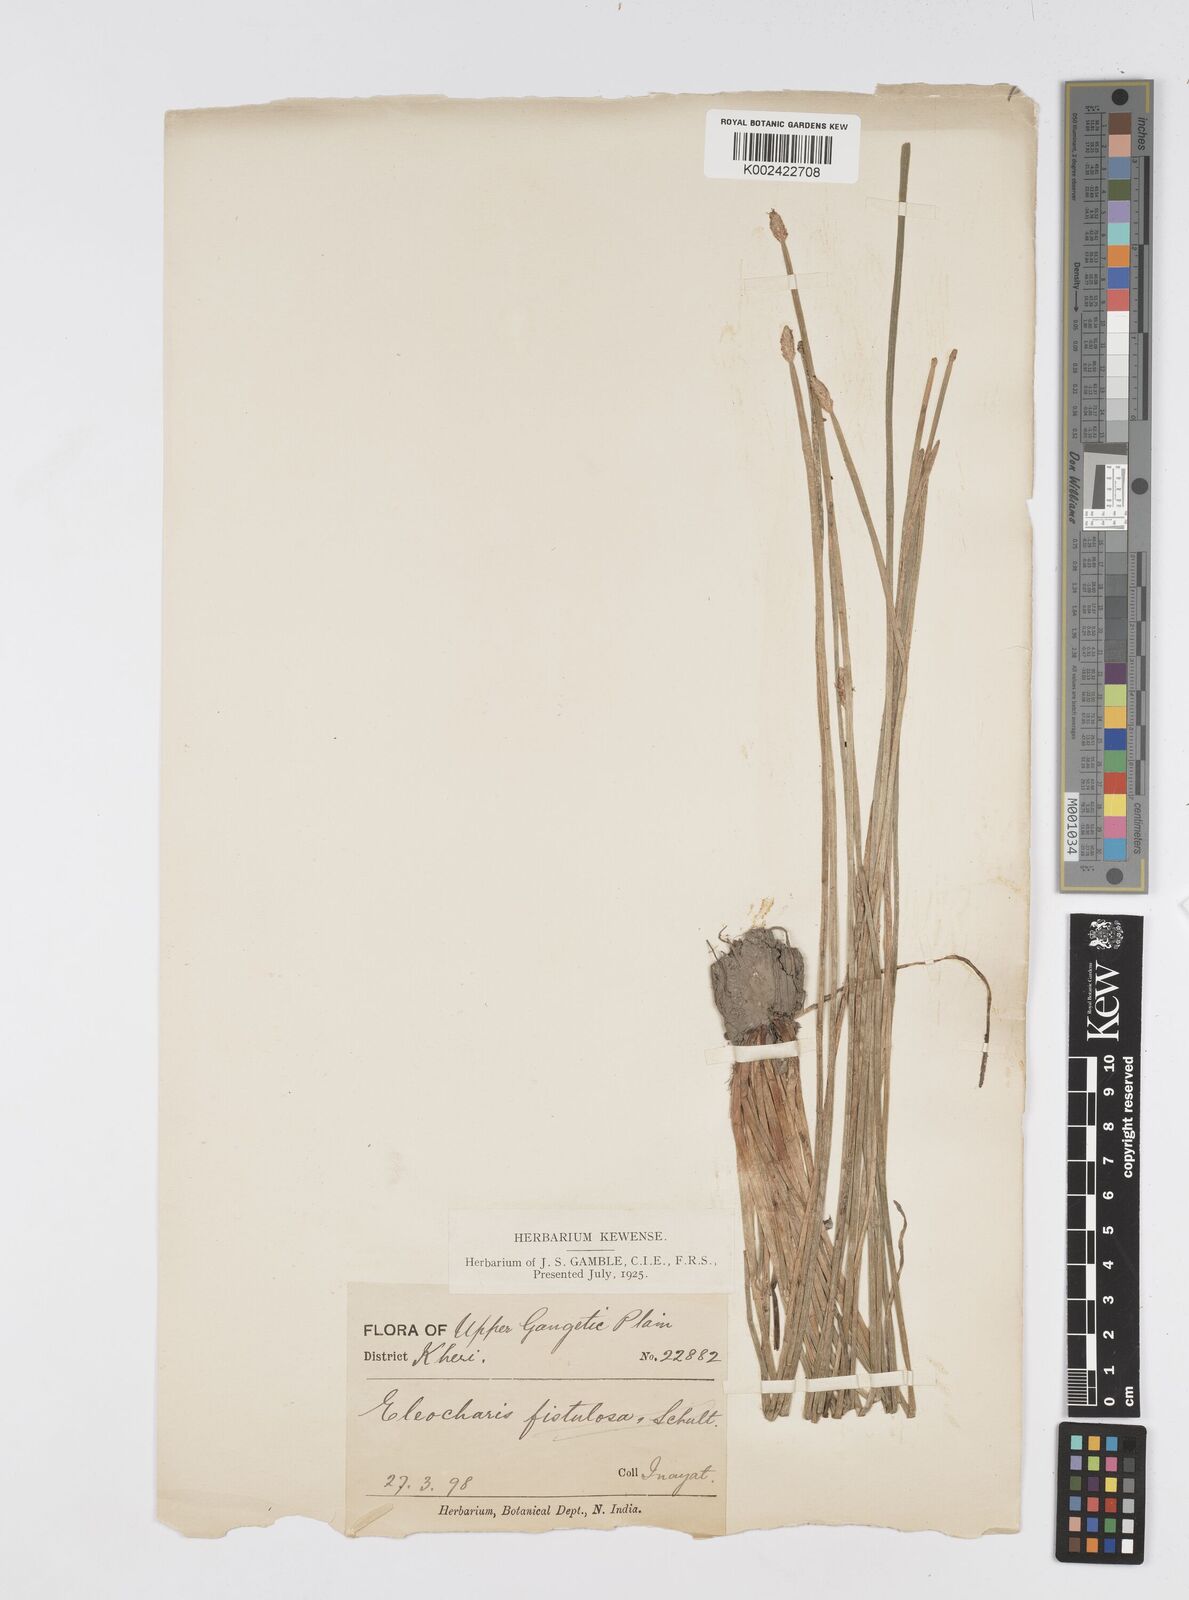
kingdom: Plantae
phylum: Tracheophyta
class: Liliopsida
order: Poales
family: Cyperaceae
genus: Eleocharis
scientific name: Eleocharis
